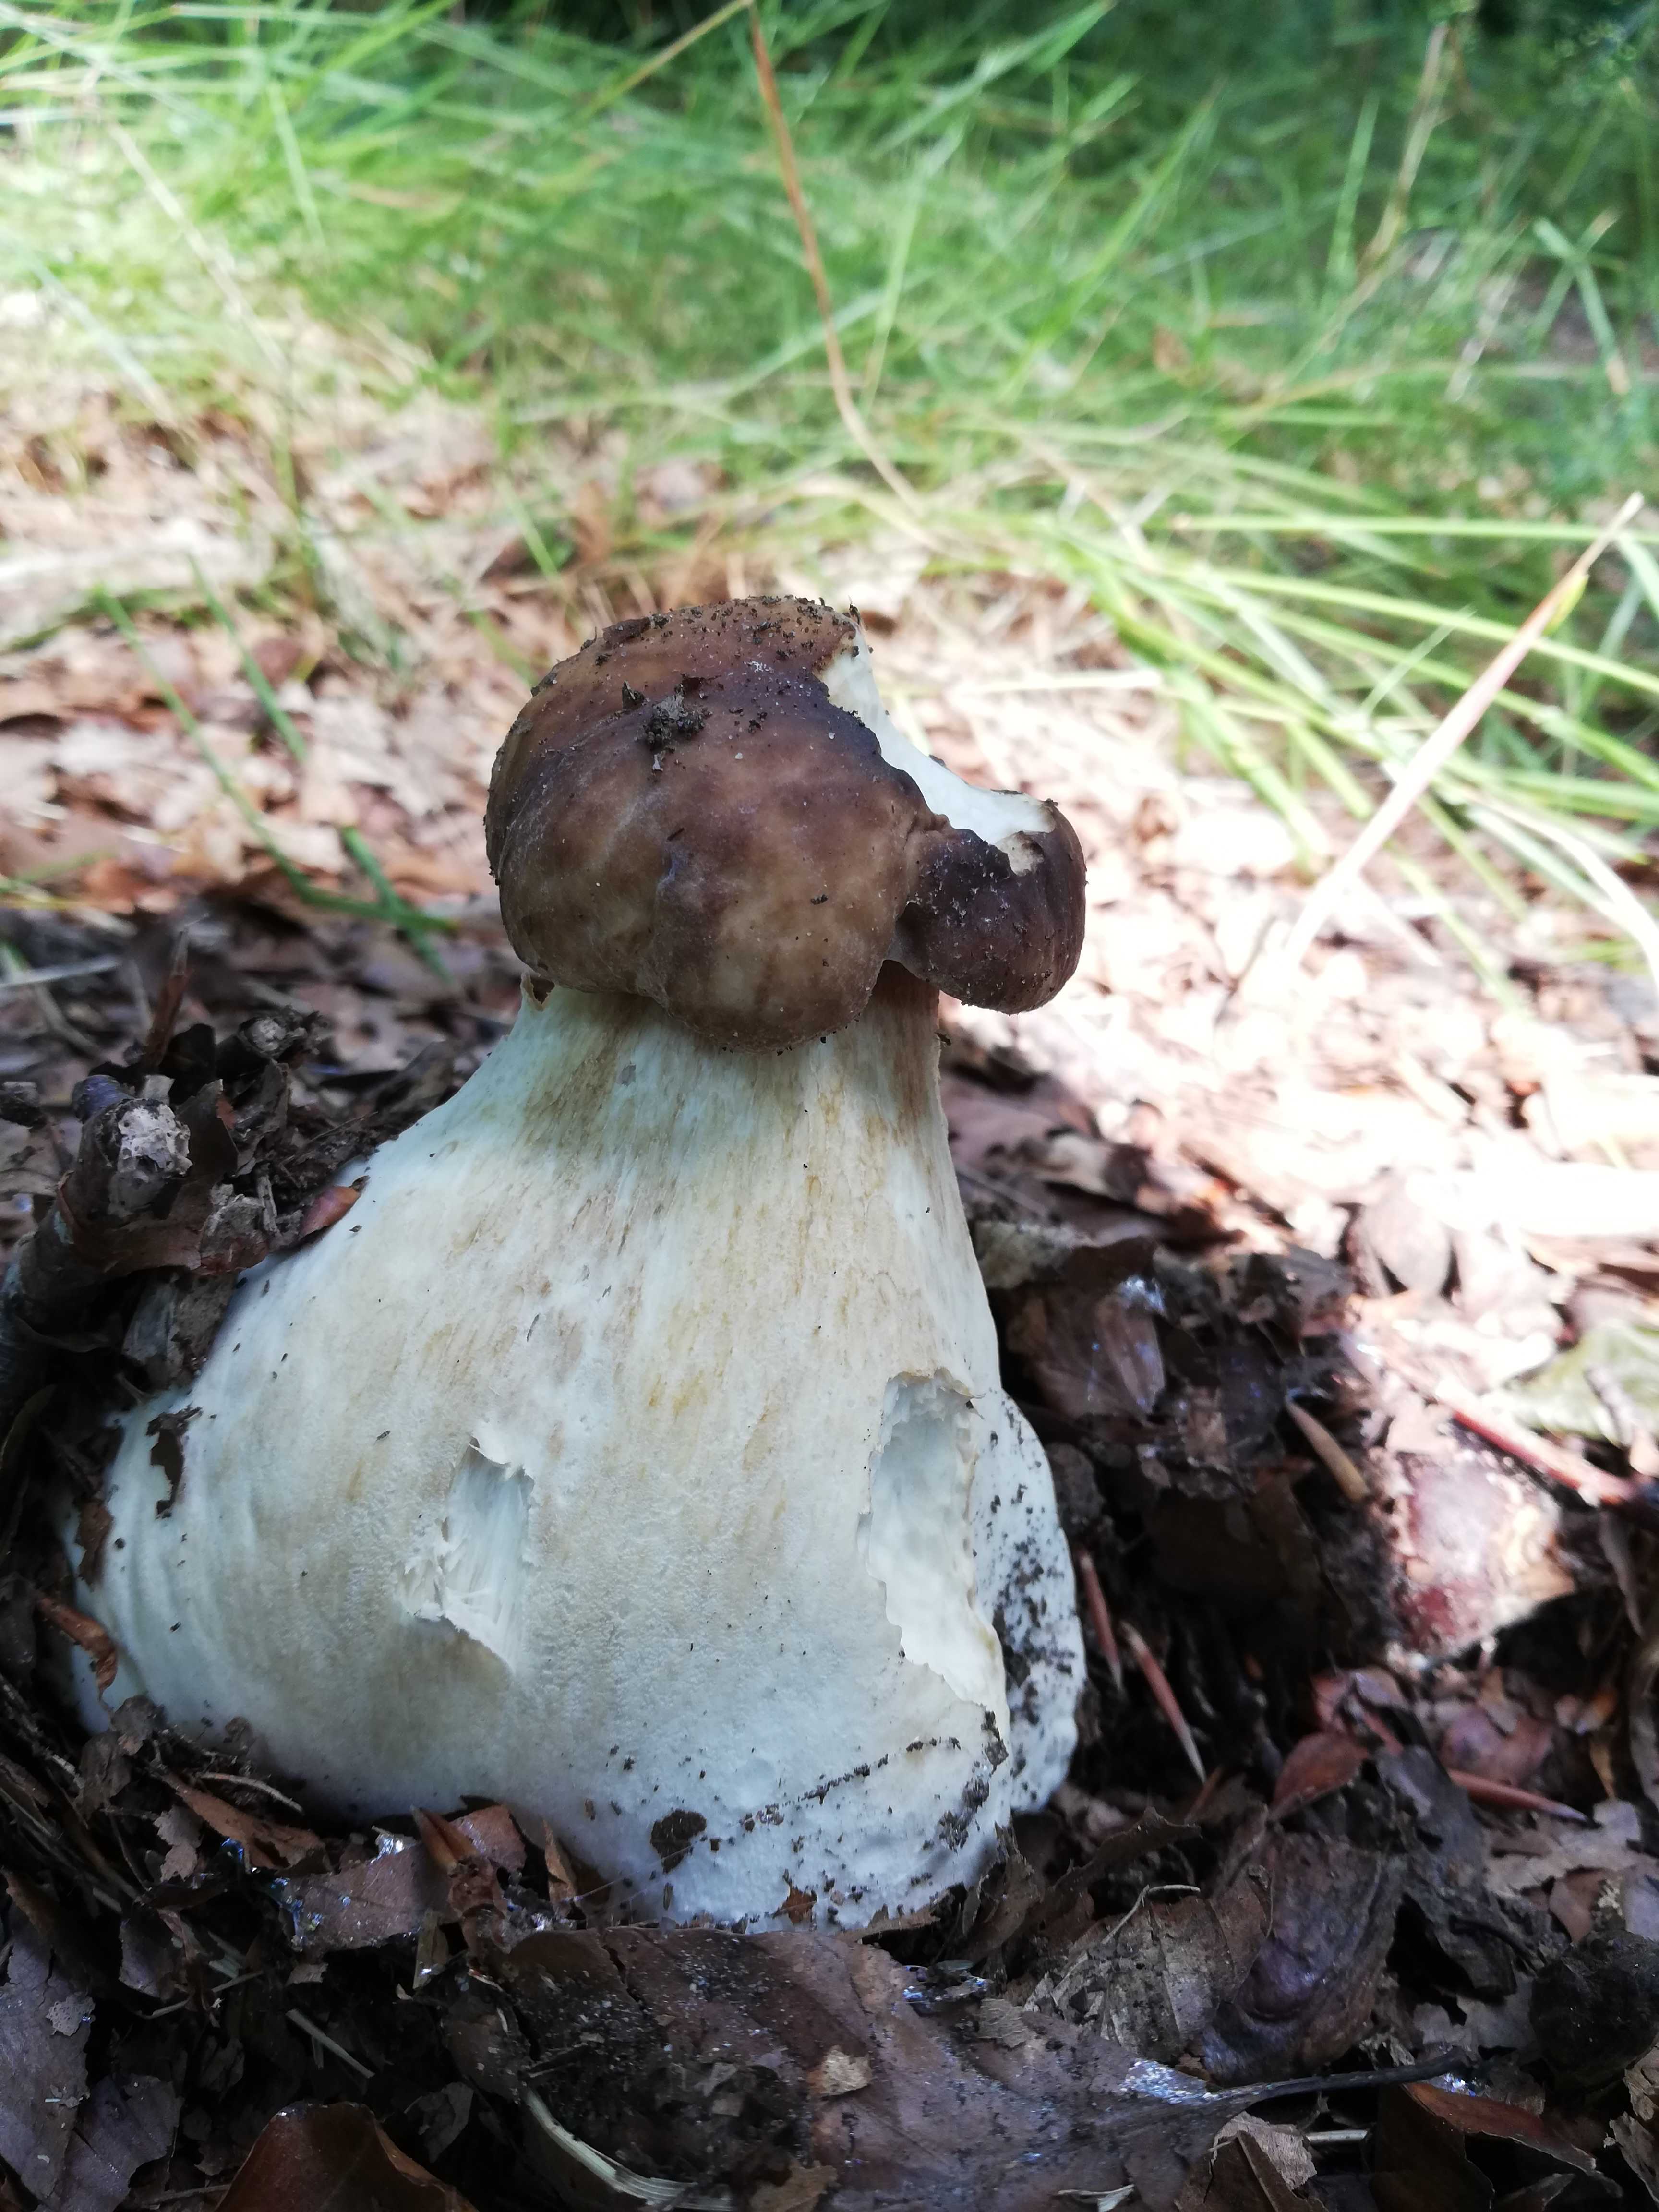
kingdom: Fungi
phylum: Basidiomycota
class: Agaricomycetes
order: Boletales
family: Boletaceae
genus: Boletus
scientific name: Boletus edulis
